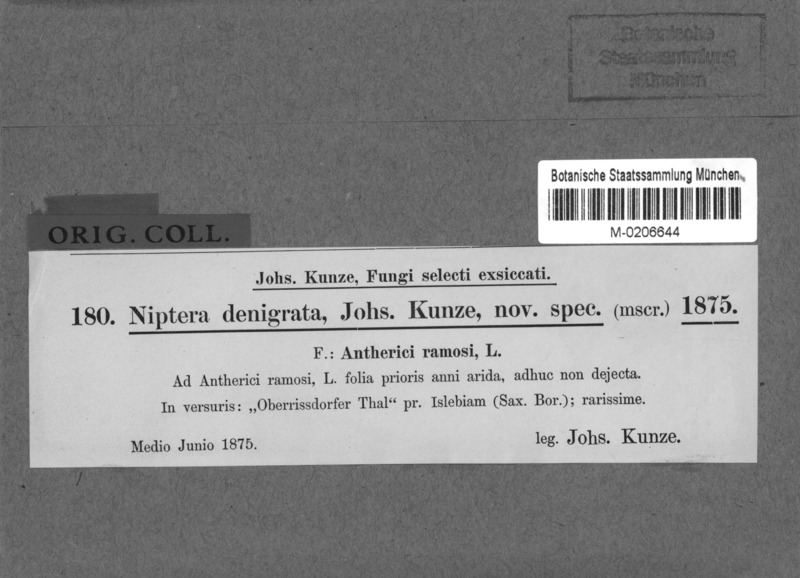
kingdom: Fungi
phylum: Ascomycota
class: Leotiomycetes
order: Helotiales
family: Drepanopezizaceae
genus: Pseudopeziza
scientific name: Pseudopeziza denigrata
